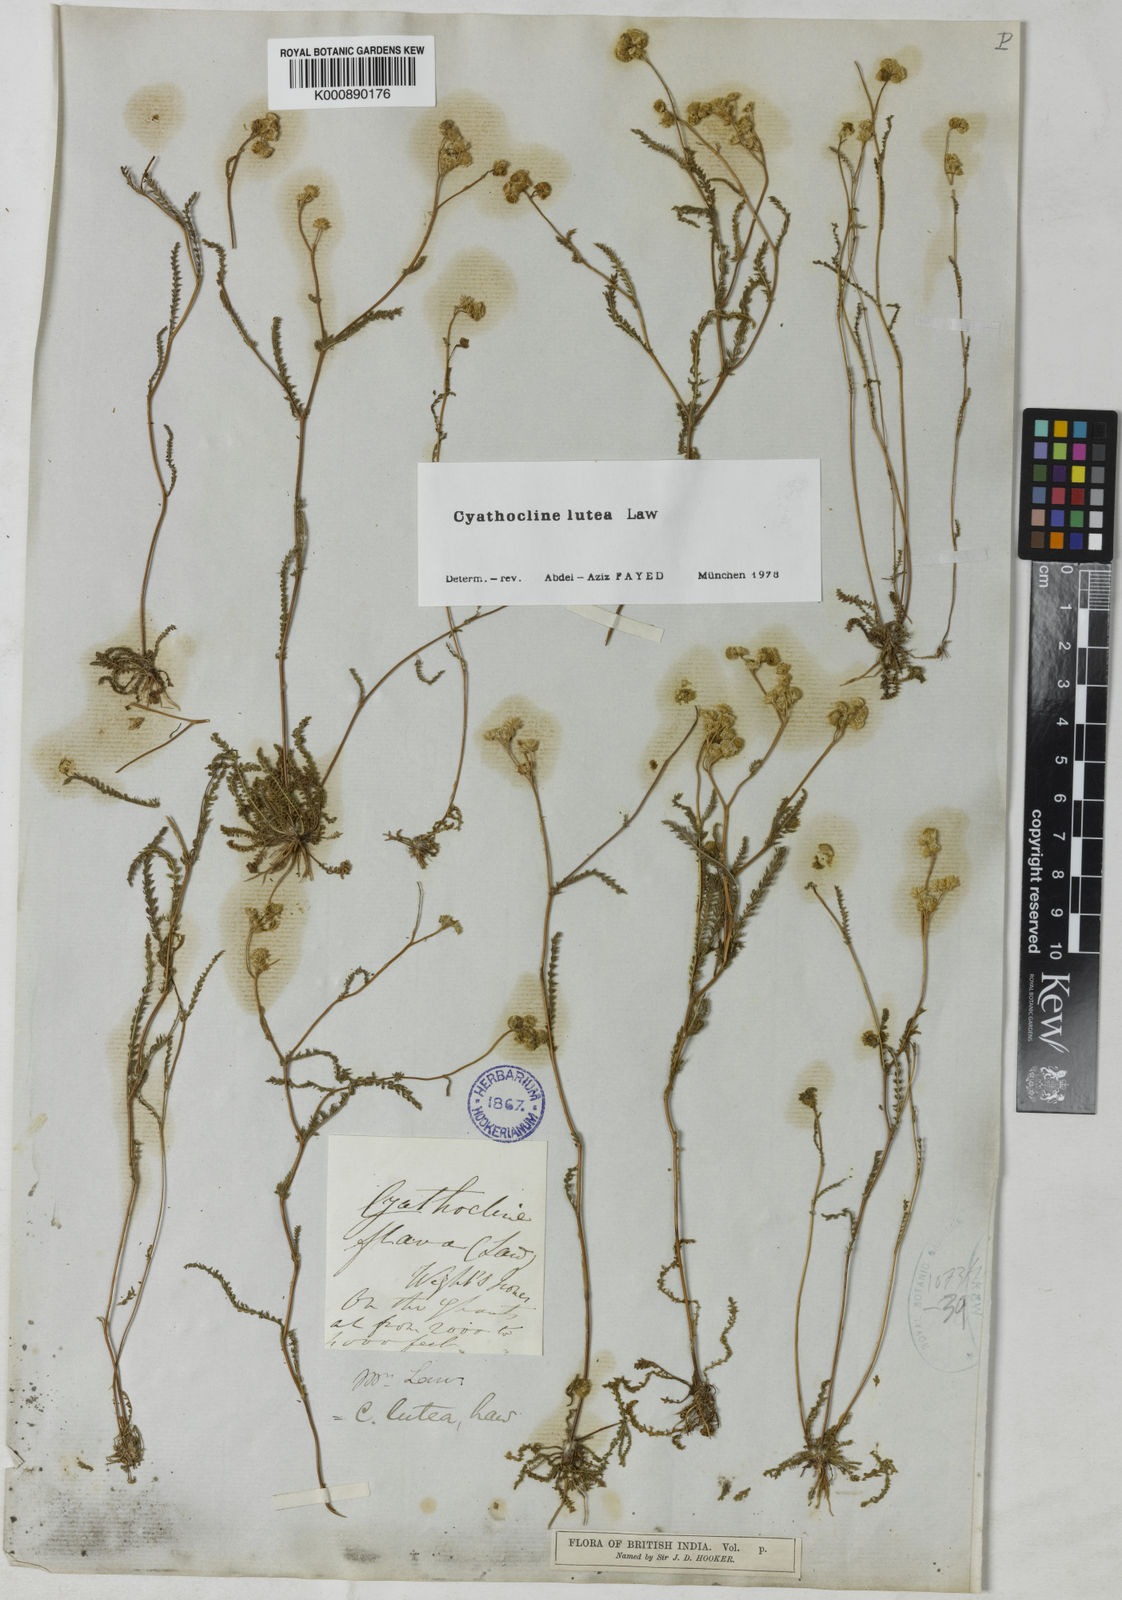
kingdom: Plantae
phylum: Tracheophyta
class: Magnoliopsida
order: Asterales
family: Asteraceae
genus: Cyathocline
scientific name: Cyathocline lutea
